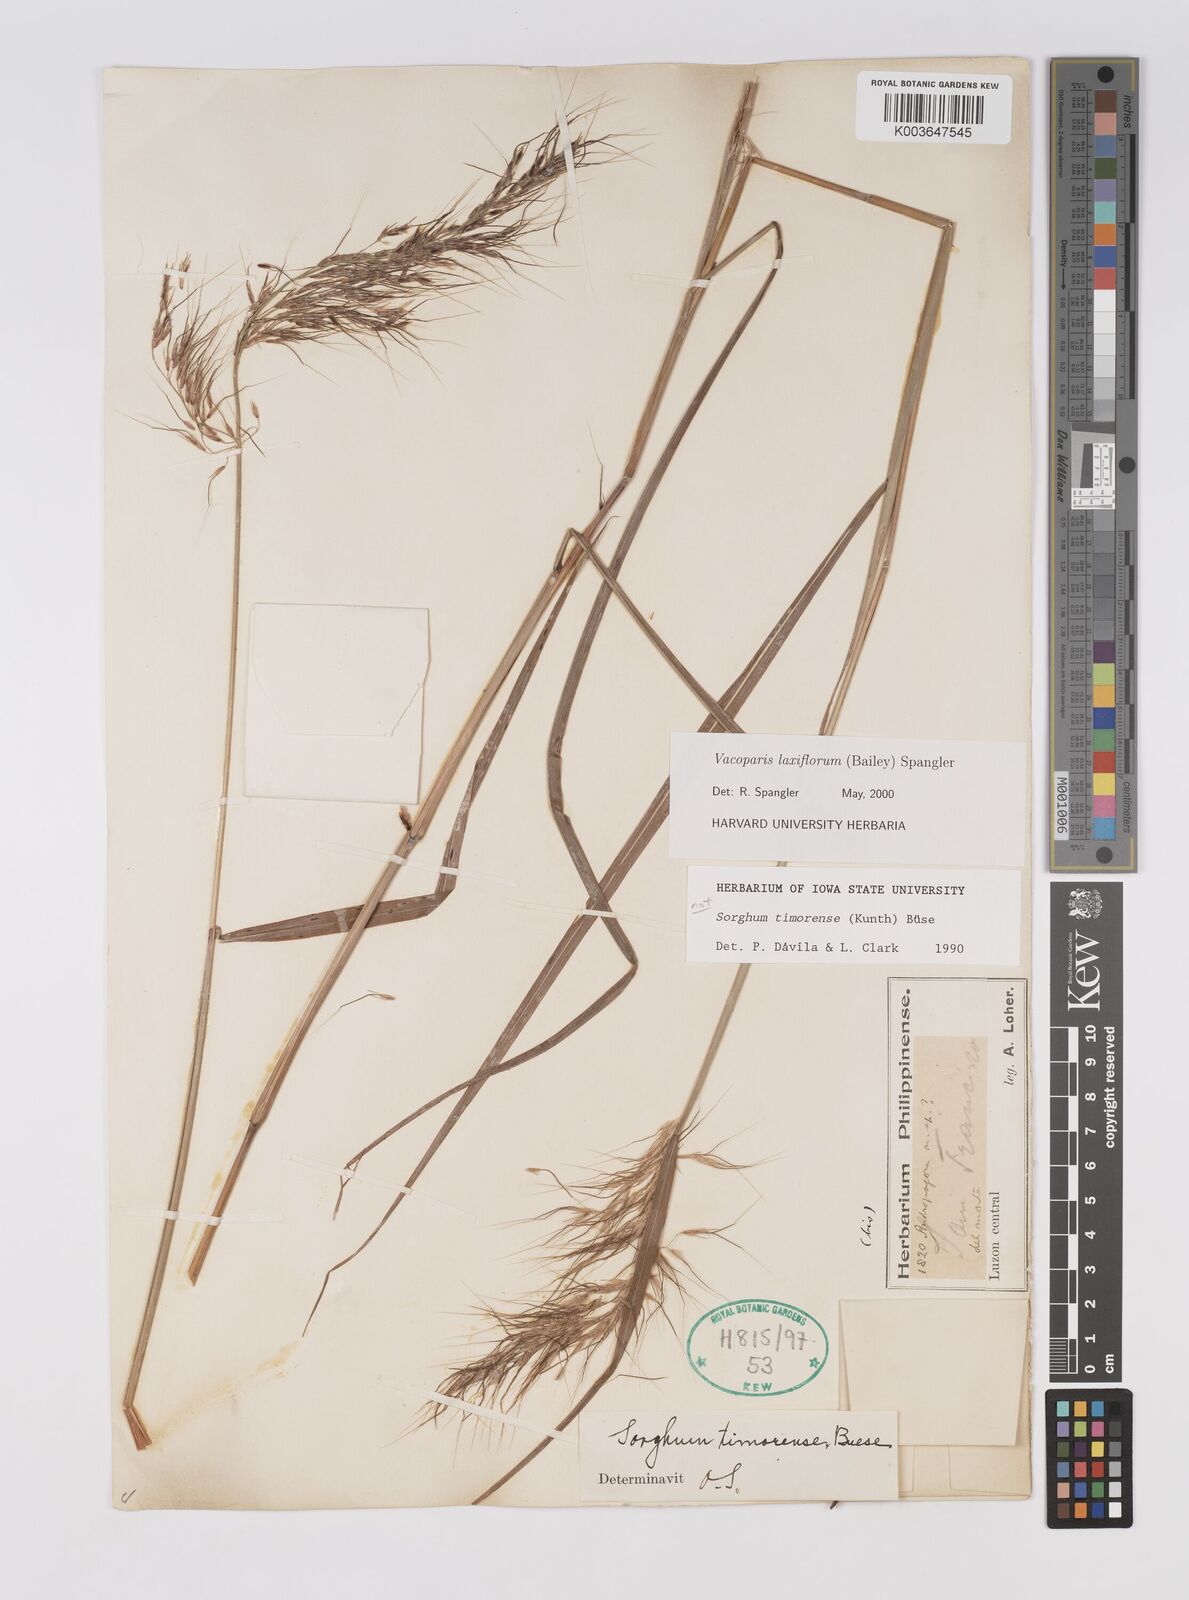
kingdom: Plantae
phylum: Tracheophyta
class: Liliopsida
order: Poales
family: Poaceae
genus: Sorghum
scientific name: Sorghum laxiflorum
